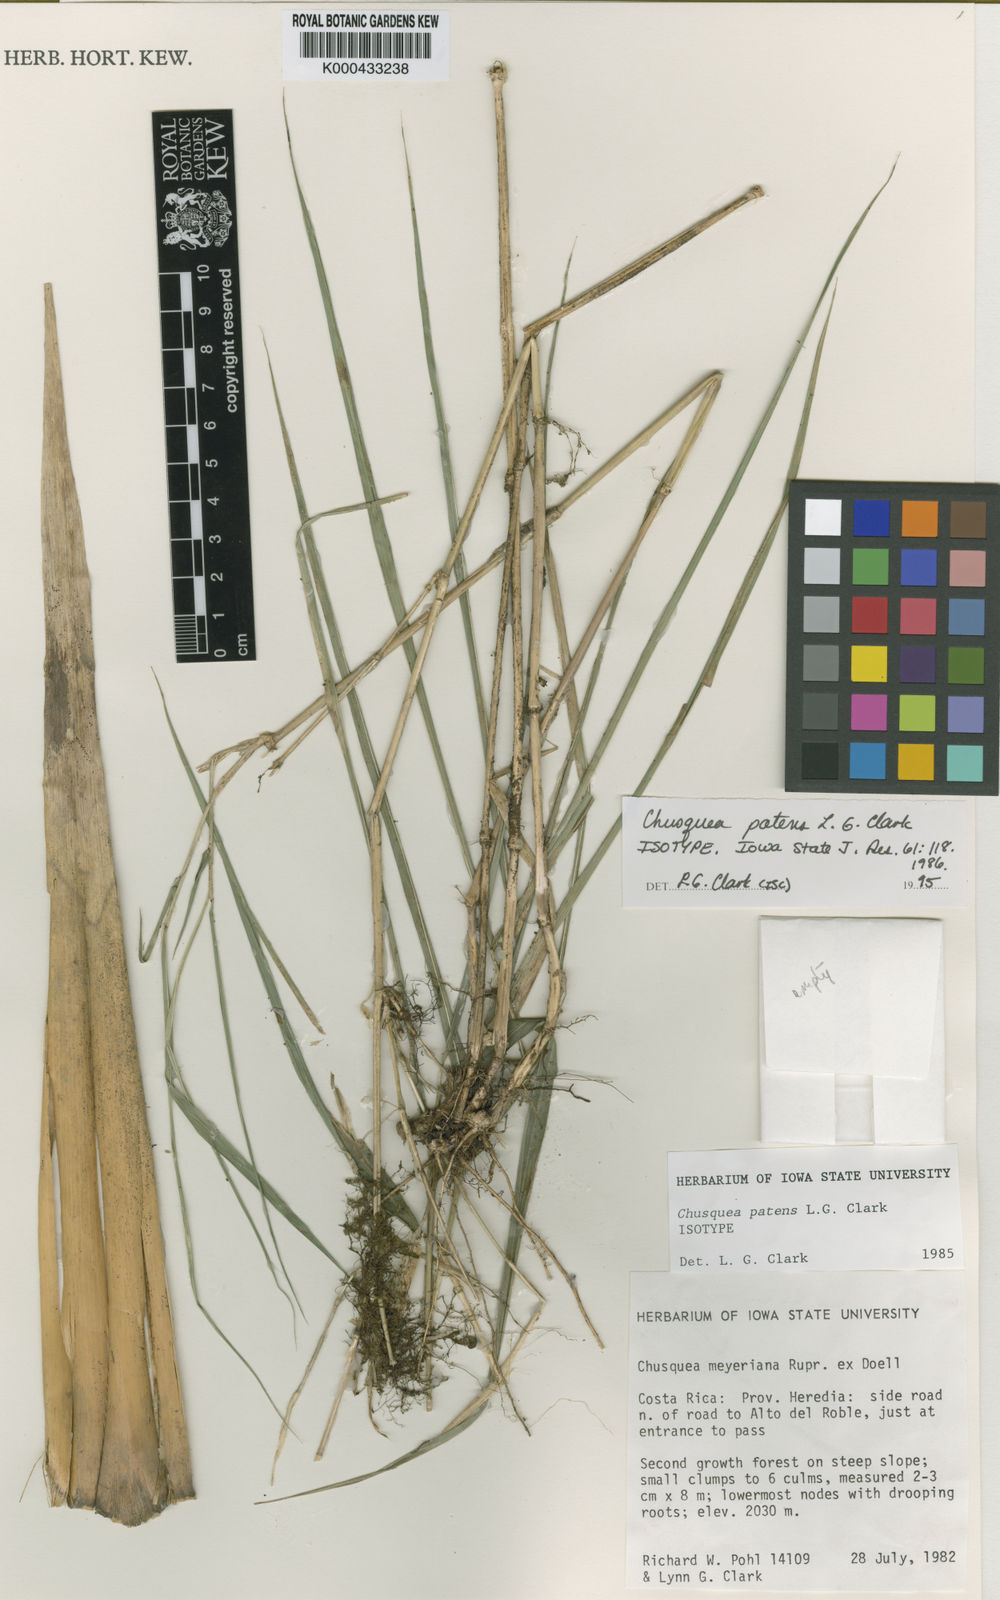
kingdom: Plantae
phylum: Tracheophyta
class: Liliopsida
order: Poales
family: Poaceae
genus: Chusquea
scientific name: Chusquea
